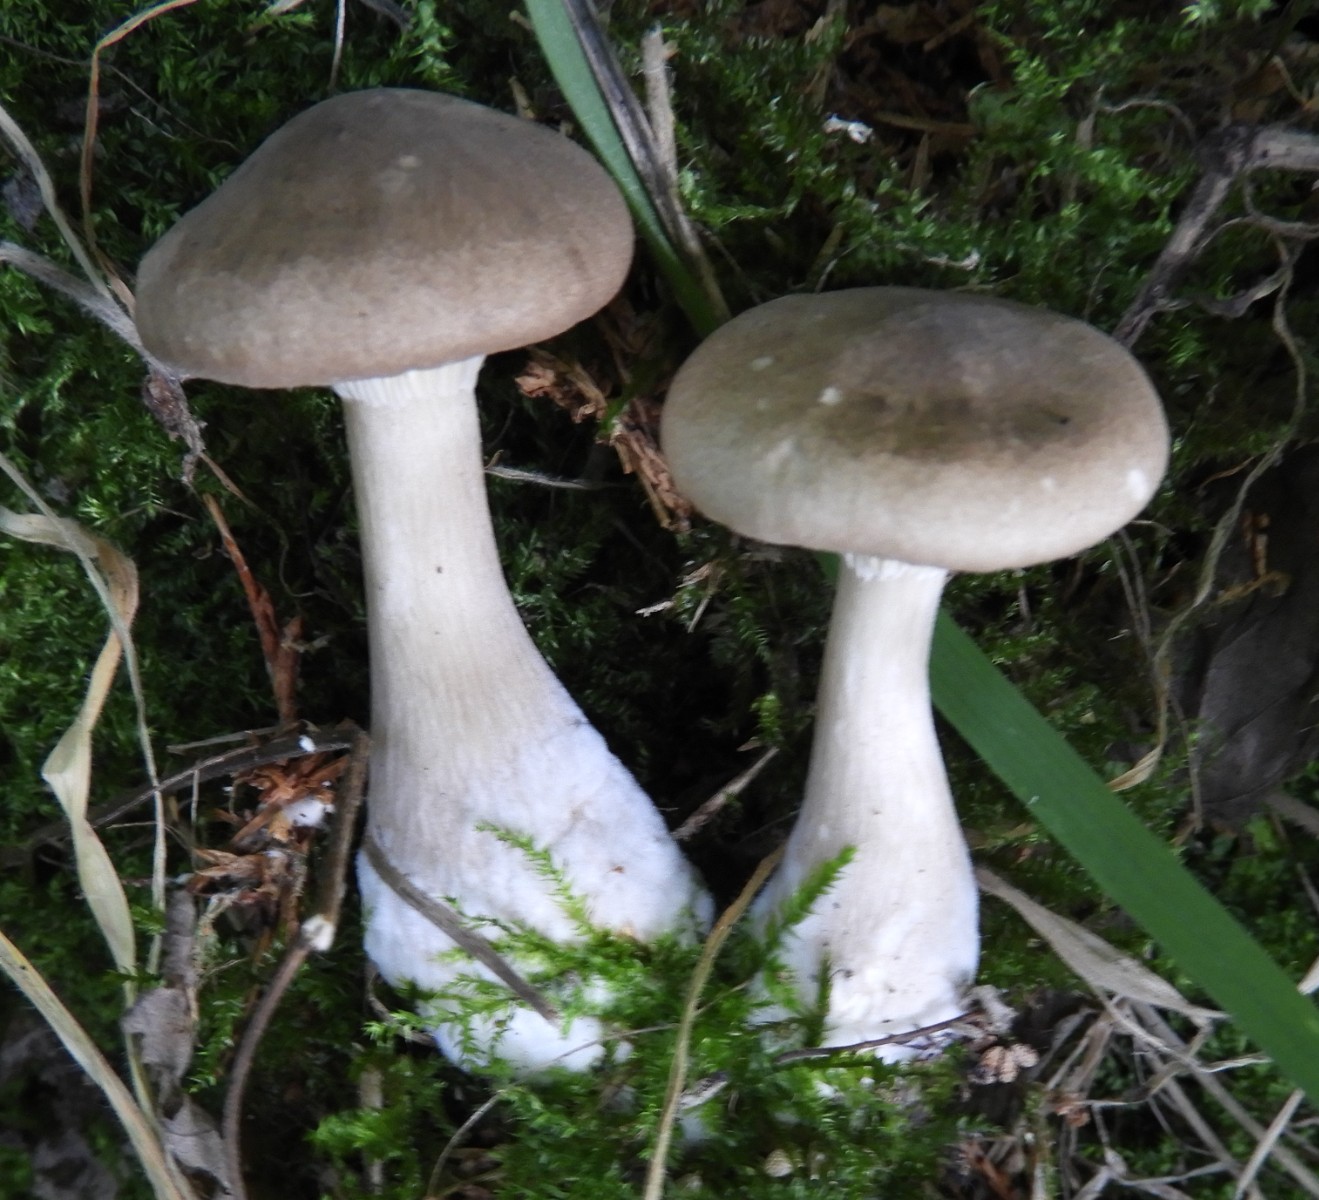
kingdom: Fungi
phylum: Basidiomycota
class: Agaricomycetes
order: Agaricales
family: Hygrophoraceae
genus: Ampulloclitocybe
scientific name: Ampulloclitocybe clavipes
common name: køllefod
